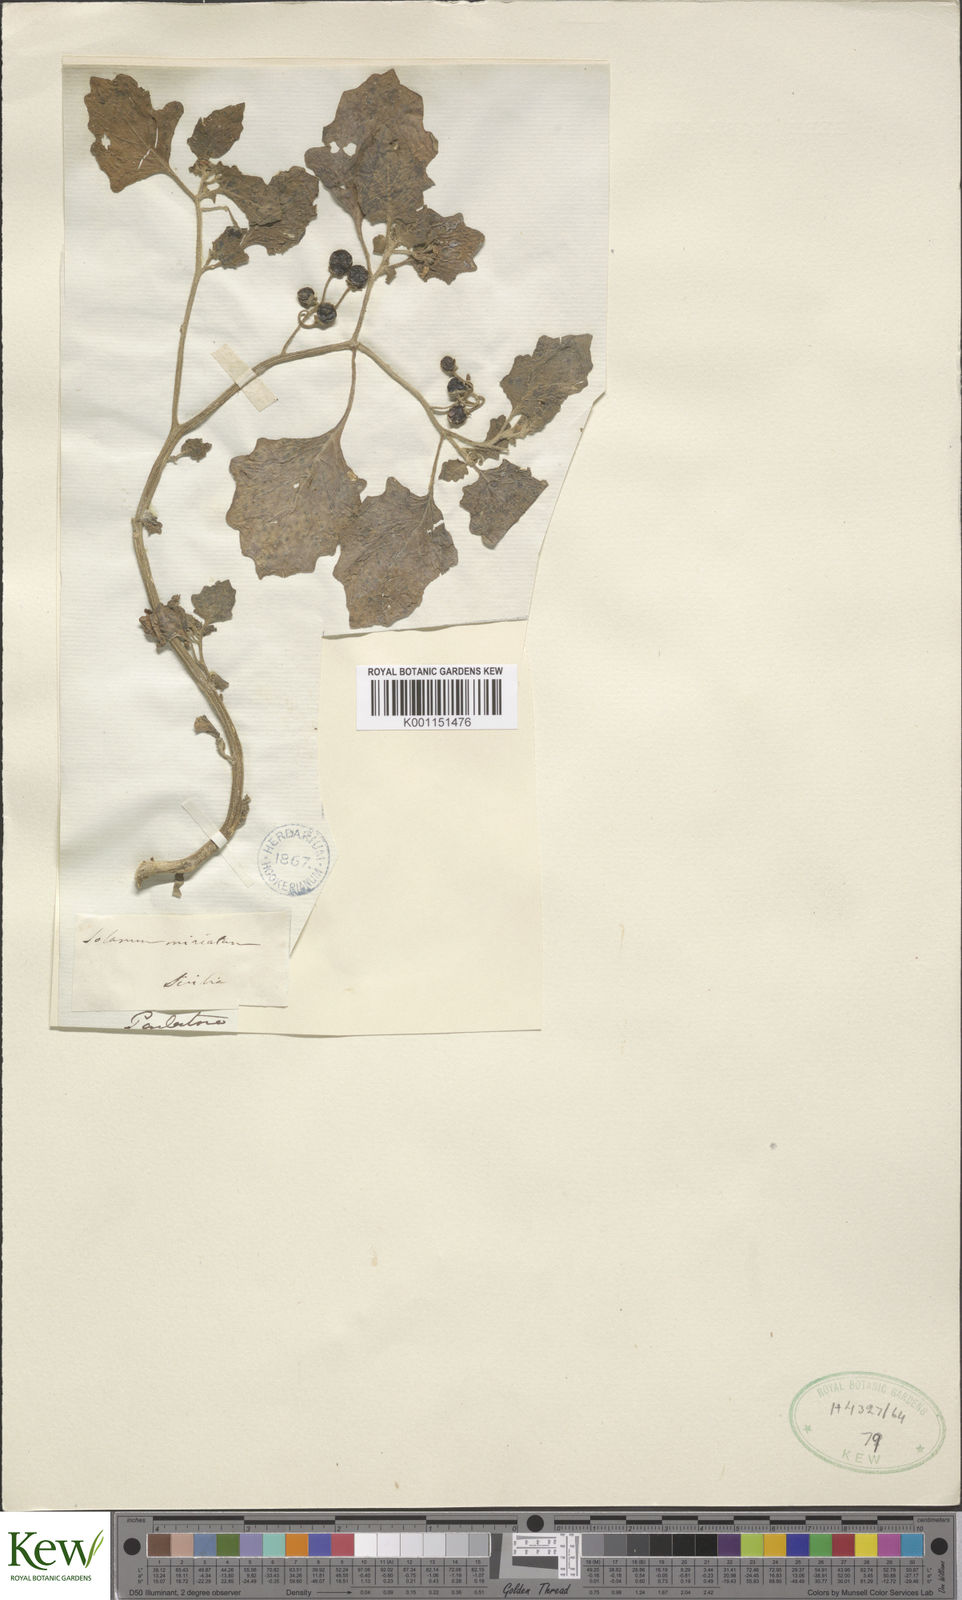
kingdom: Plantae
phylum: Tracheophyta
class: Magnoliopsida
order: Solanales
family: Solanaceae
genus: Solanum
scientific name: Solanum alatum
